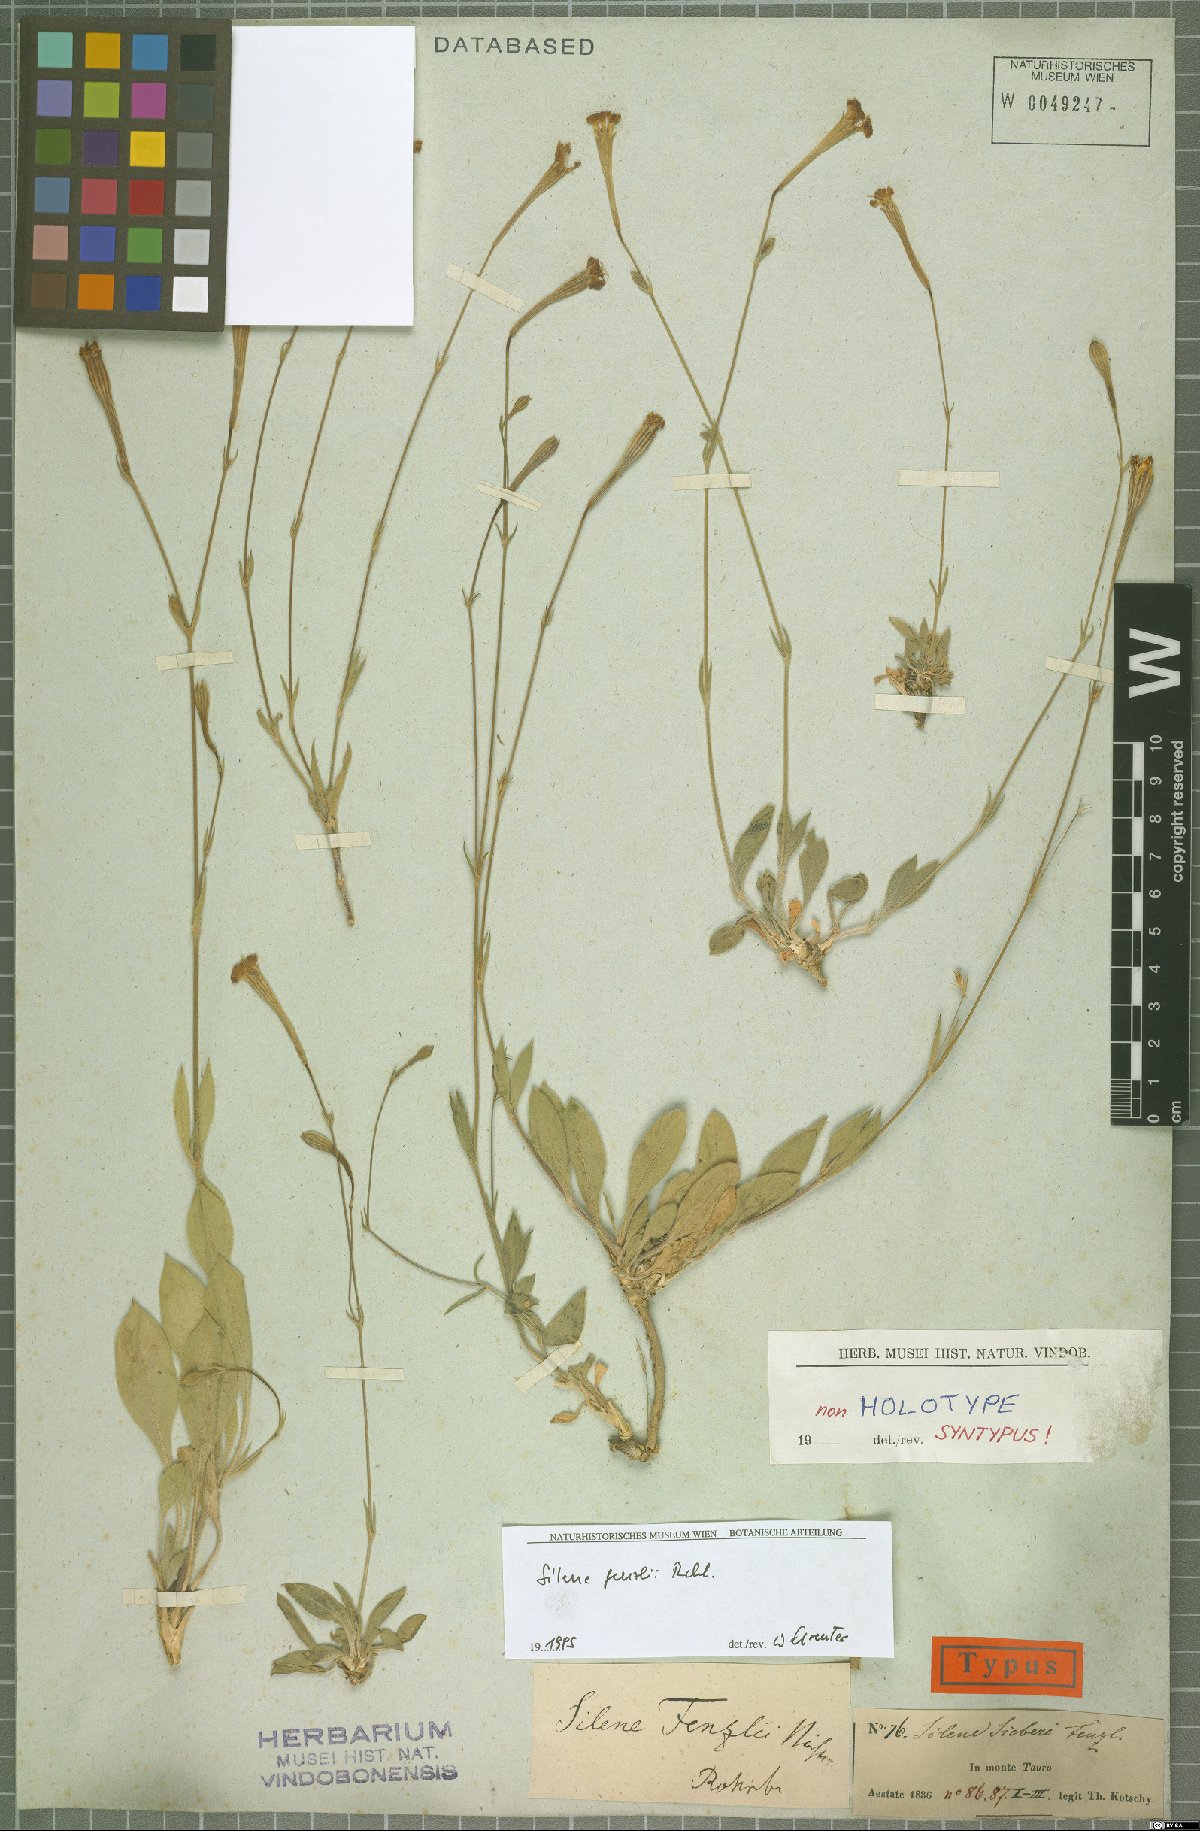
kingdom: Plantae
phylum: Tracheophyta
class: Magnoliopsida
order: Caryophyllales
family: Caryophyllaceae
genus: Silene
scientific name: Silene fenzlii
